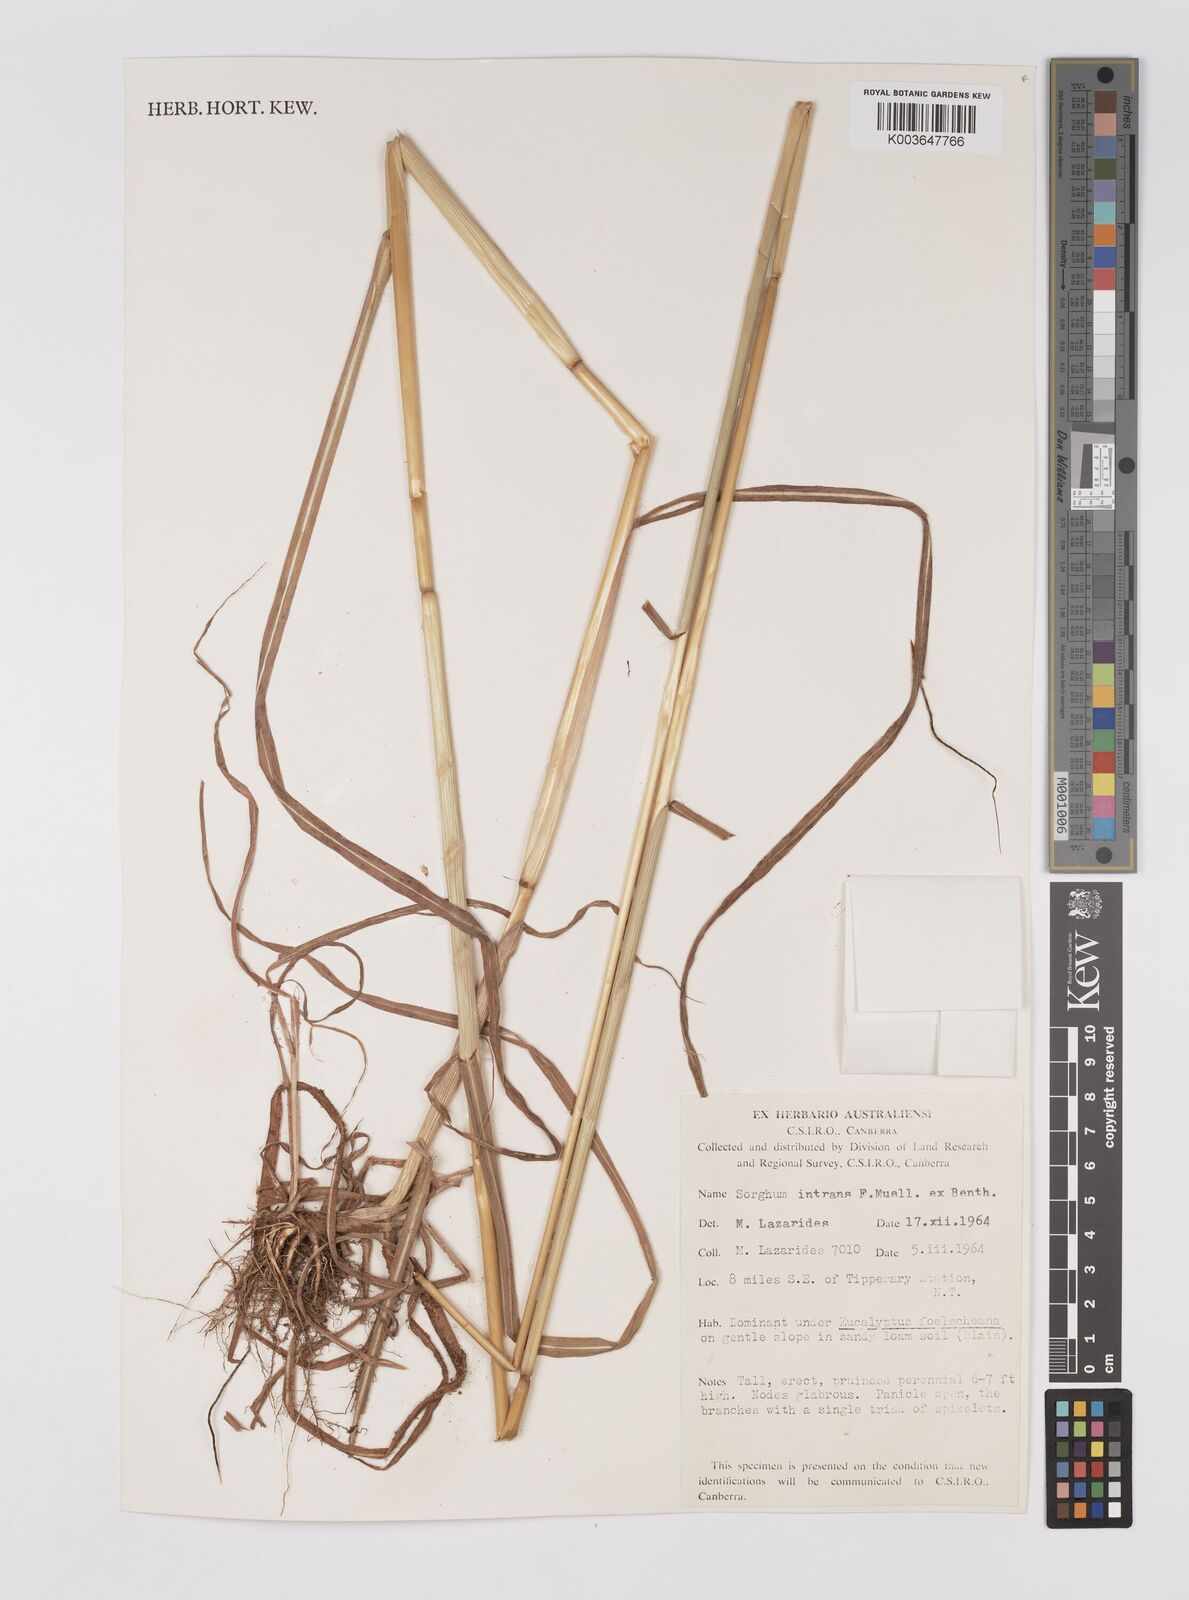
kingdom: Plantae
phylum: Tracheophyta
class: Liliopsida
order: Poales
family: Poaceae
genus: Sarga
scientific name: Sarga intrans
